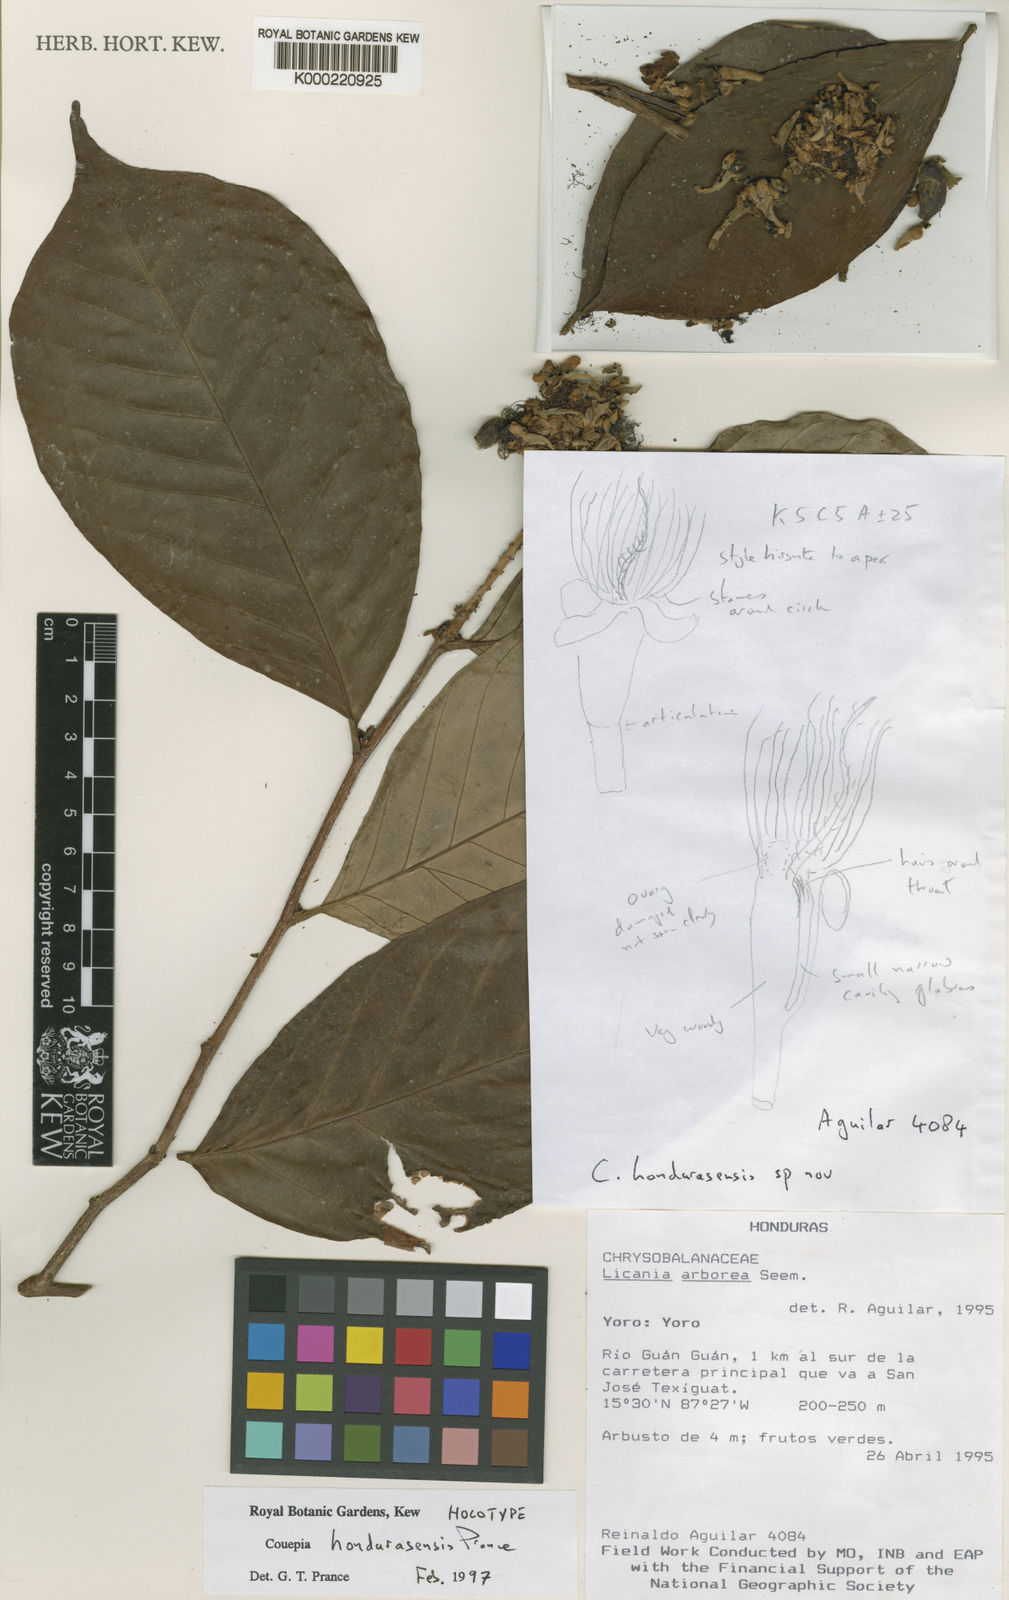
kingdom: Plantae
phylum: Tracheophyta
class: Magnoliopsida
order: Malpighiales
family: Chrysobalanaceae
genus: Couepia
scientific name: Couepia hondurasensis
